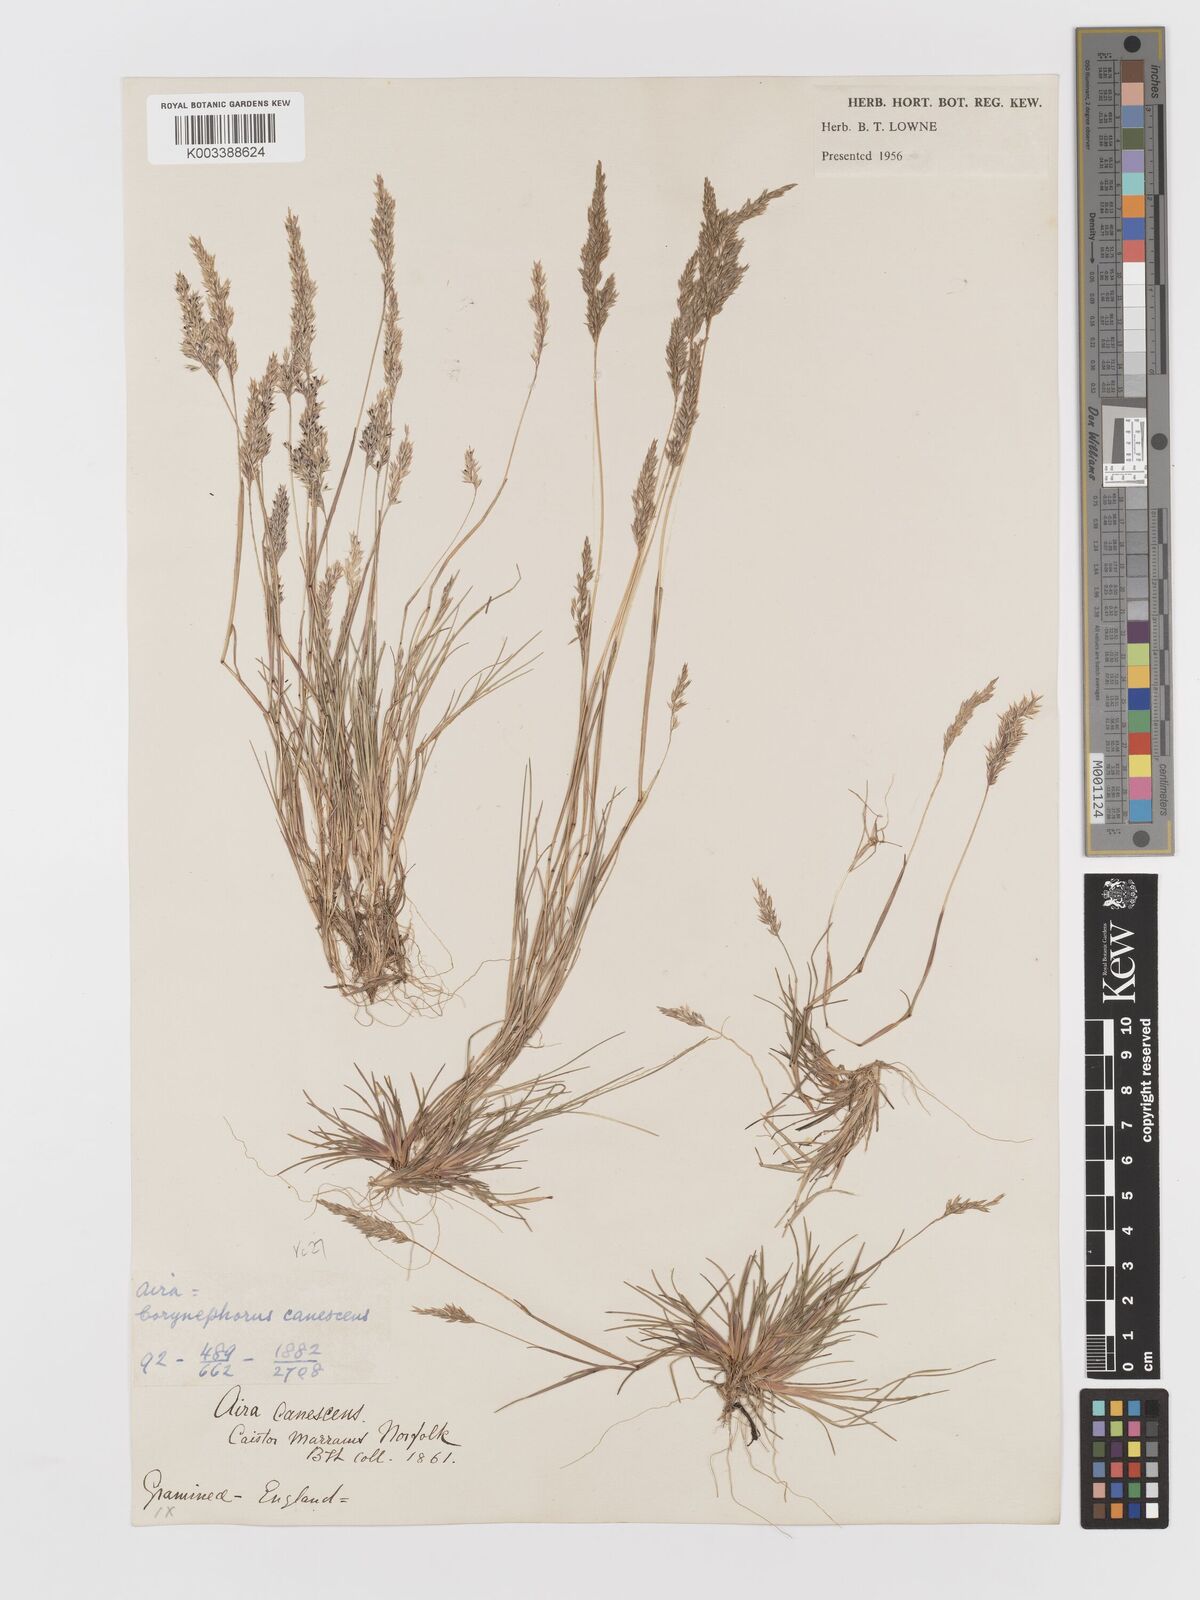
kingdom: Plantae
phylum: Tracheophyta
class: Liliopsida
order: Poales
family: Poaceae
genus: Corynephorus
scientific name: Corynephorus canescens
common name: Grey hair-grass
